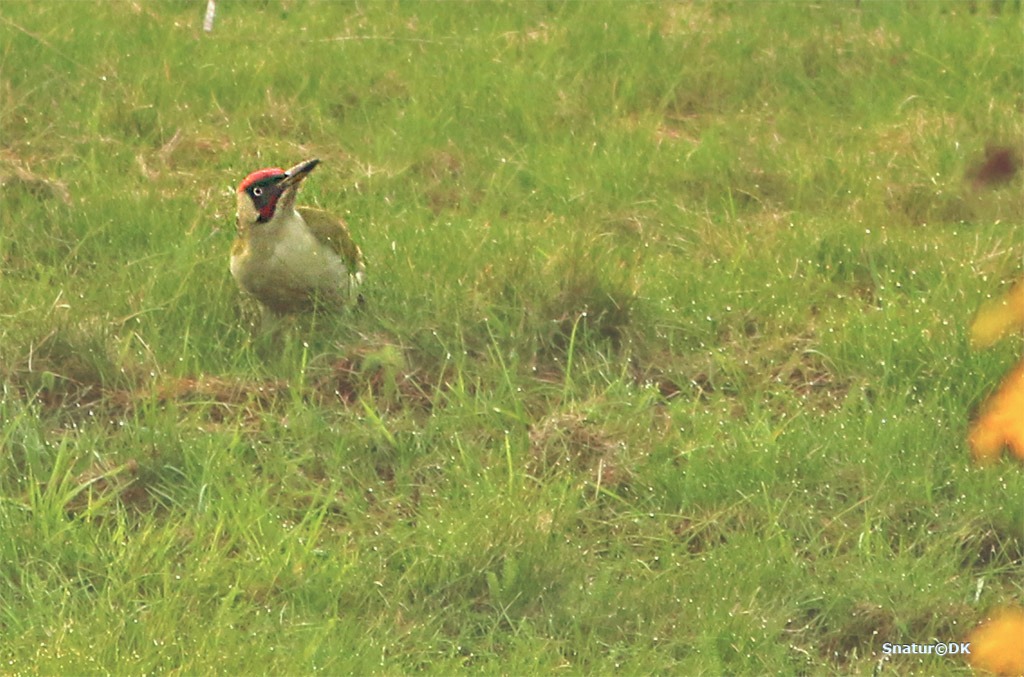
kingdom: Animalia
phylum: Chordata
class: Aves
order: Piciformes
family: Picidae
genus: Picus
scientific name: Picus viridis
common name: Grønspætte
